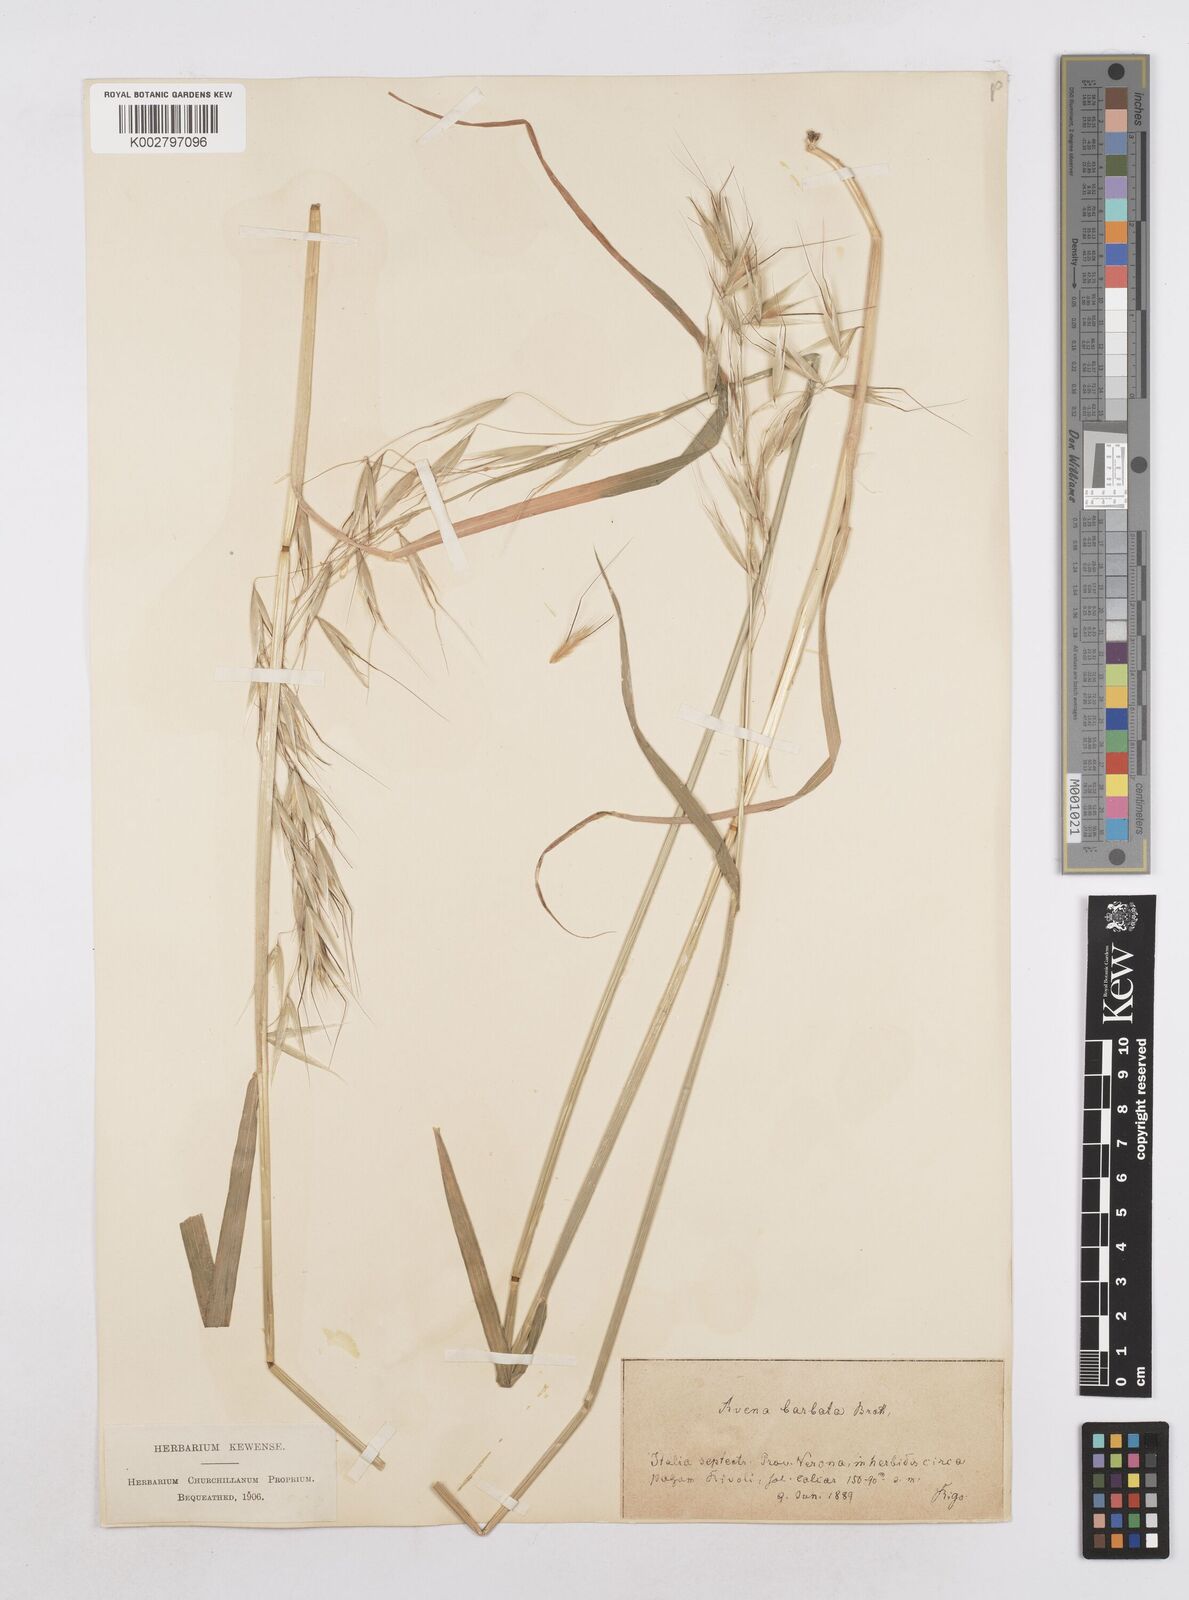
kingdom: Plantae
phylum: Tracheophyta
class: Liliopsida
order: Poales
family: Poaceae
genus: Avena
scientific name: Avena
